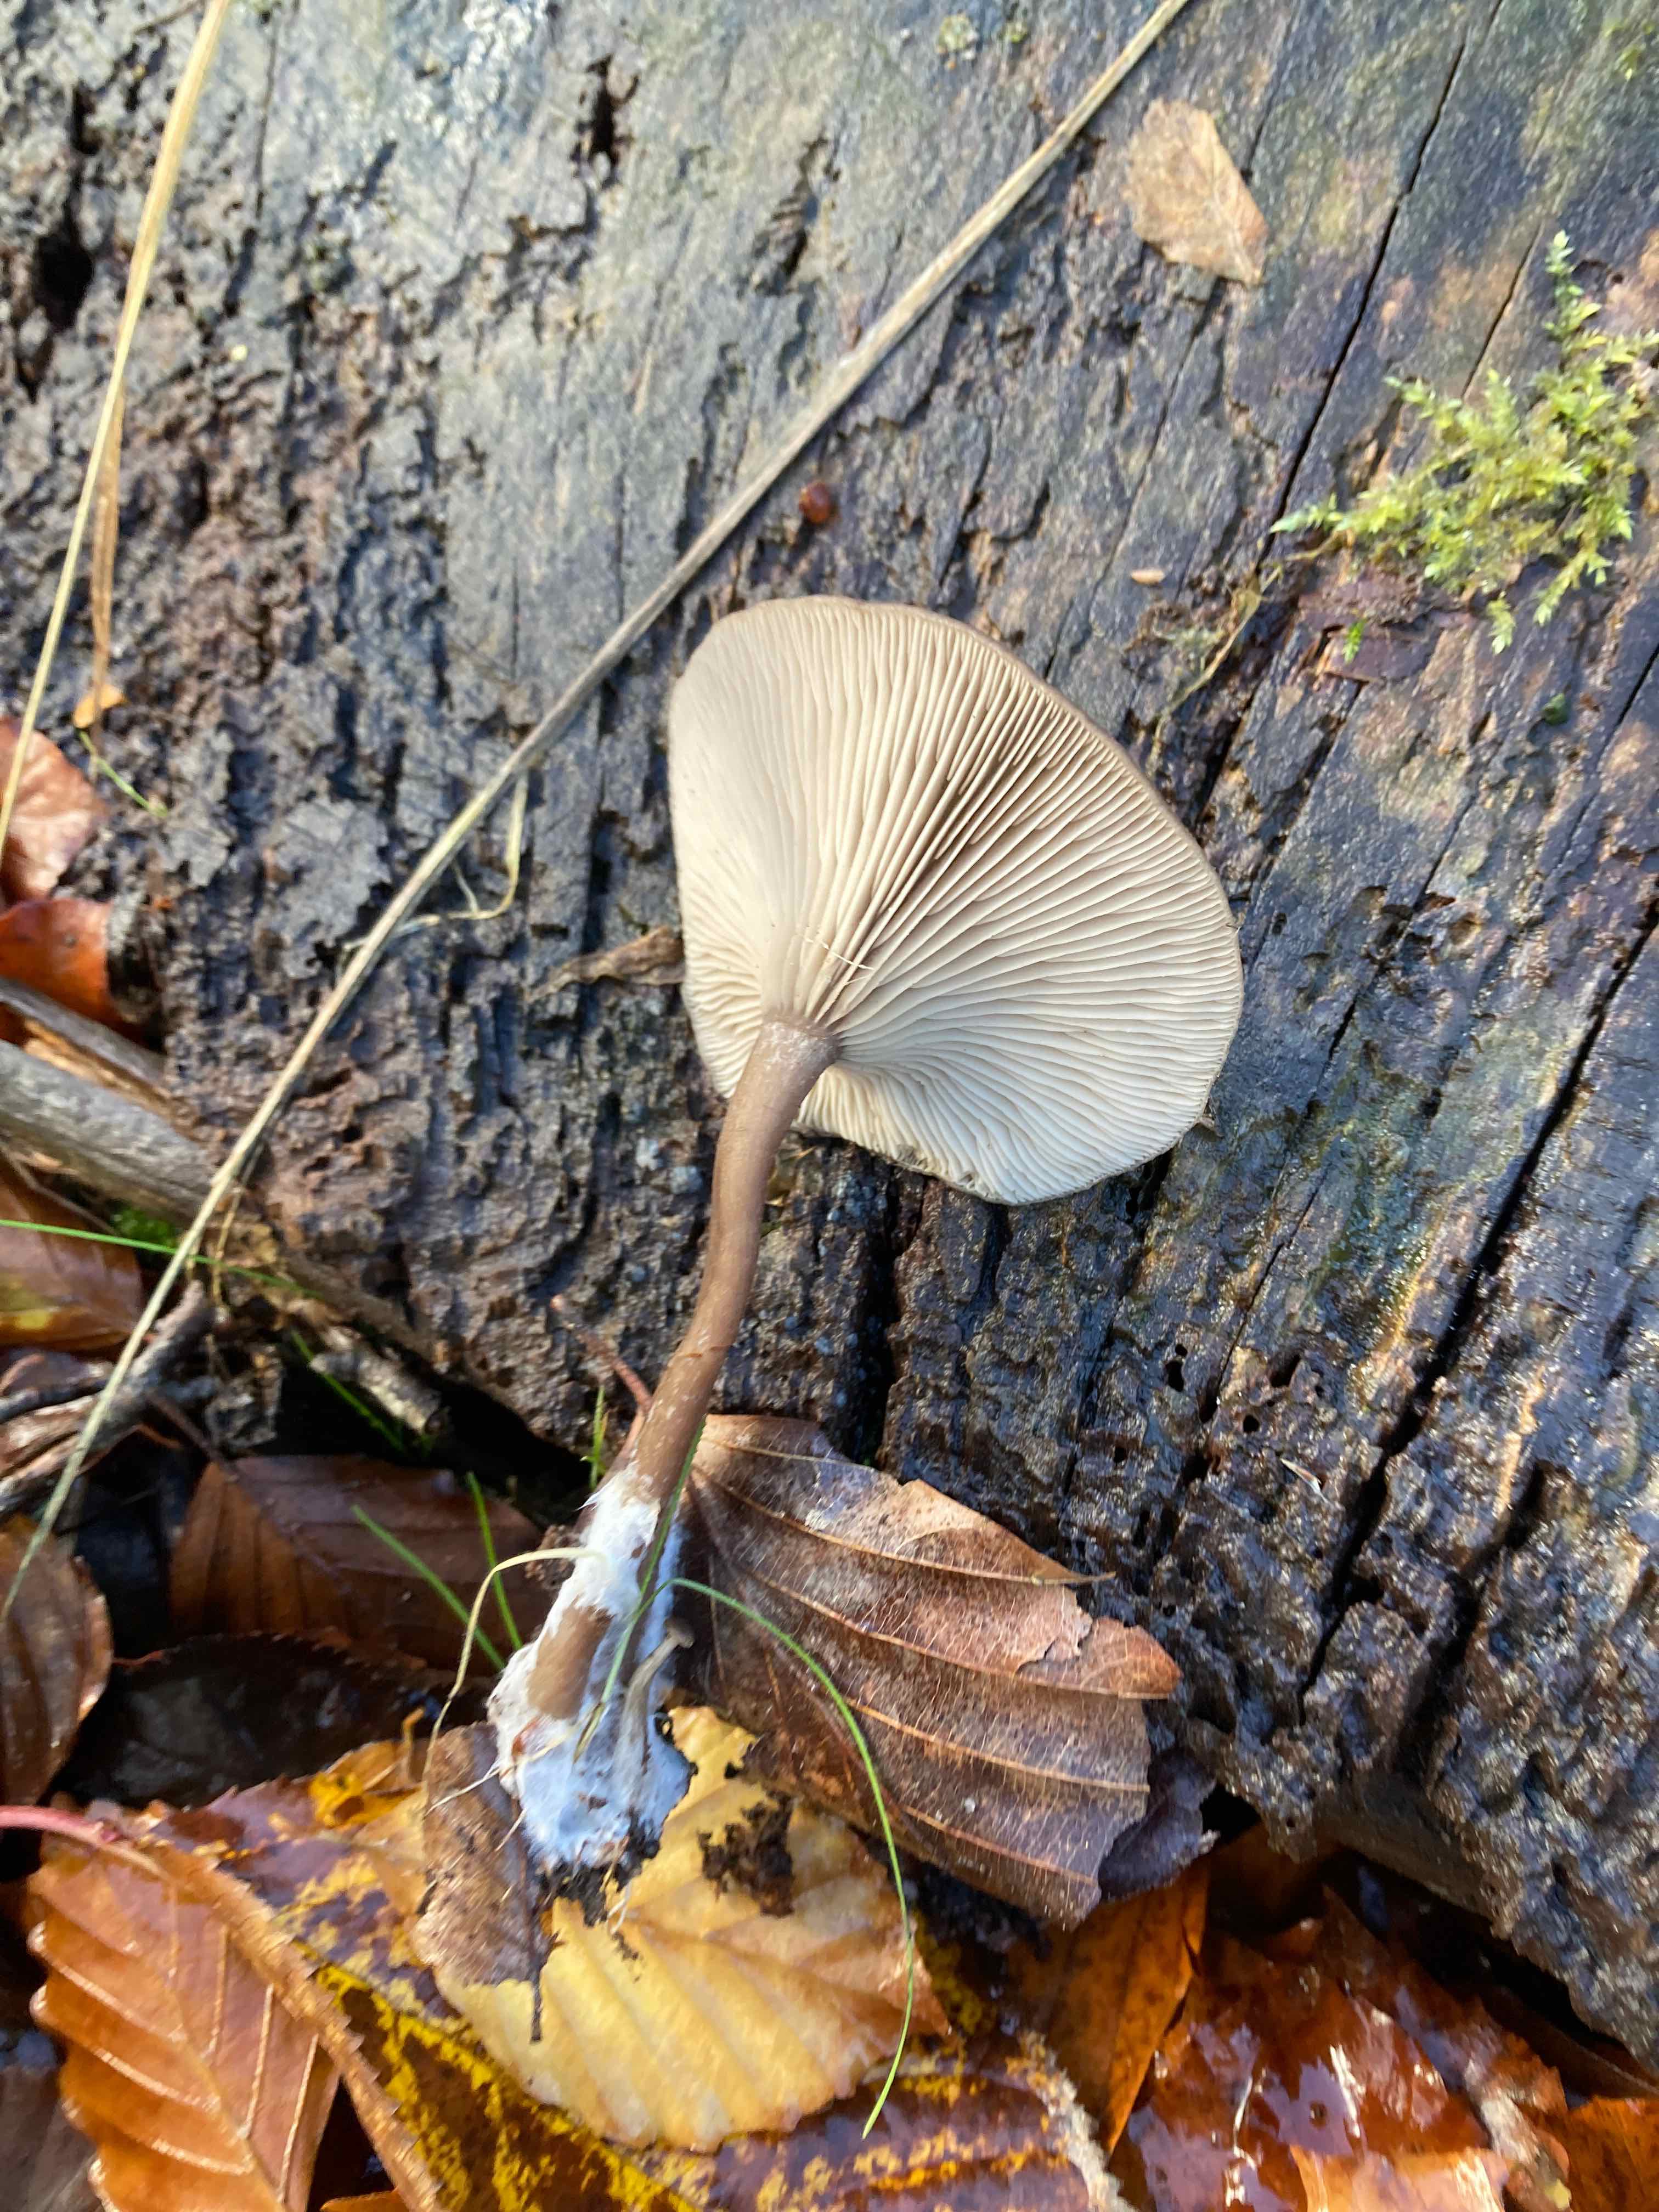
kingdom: Fungi
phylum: Basidiomycota
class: Agaricomycetes
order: Agaricales
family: Pseudoclitocybaceae
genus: Pseudoclitocybe
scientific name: Pseudoclitocybe cyathiformis
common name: almindelig bægertragthat
